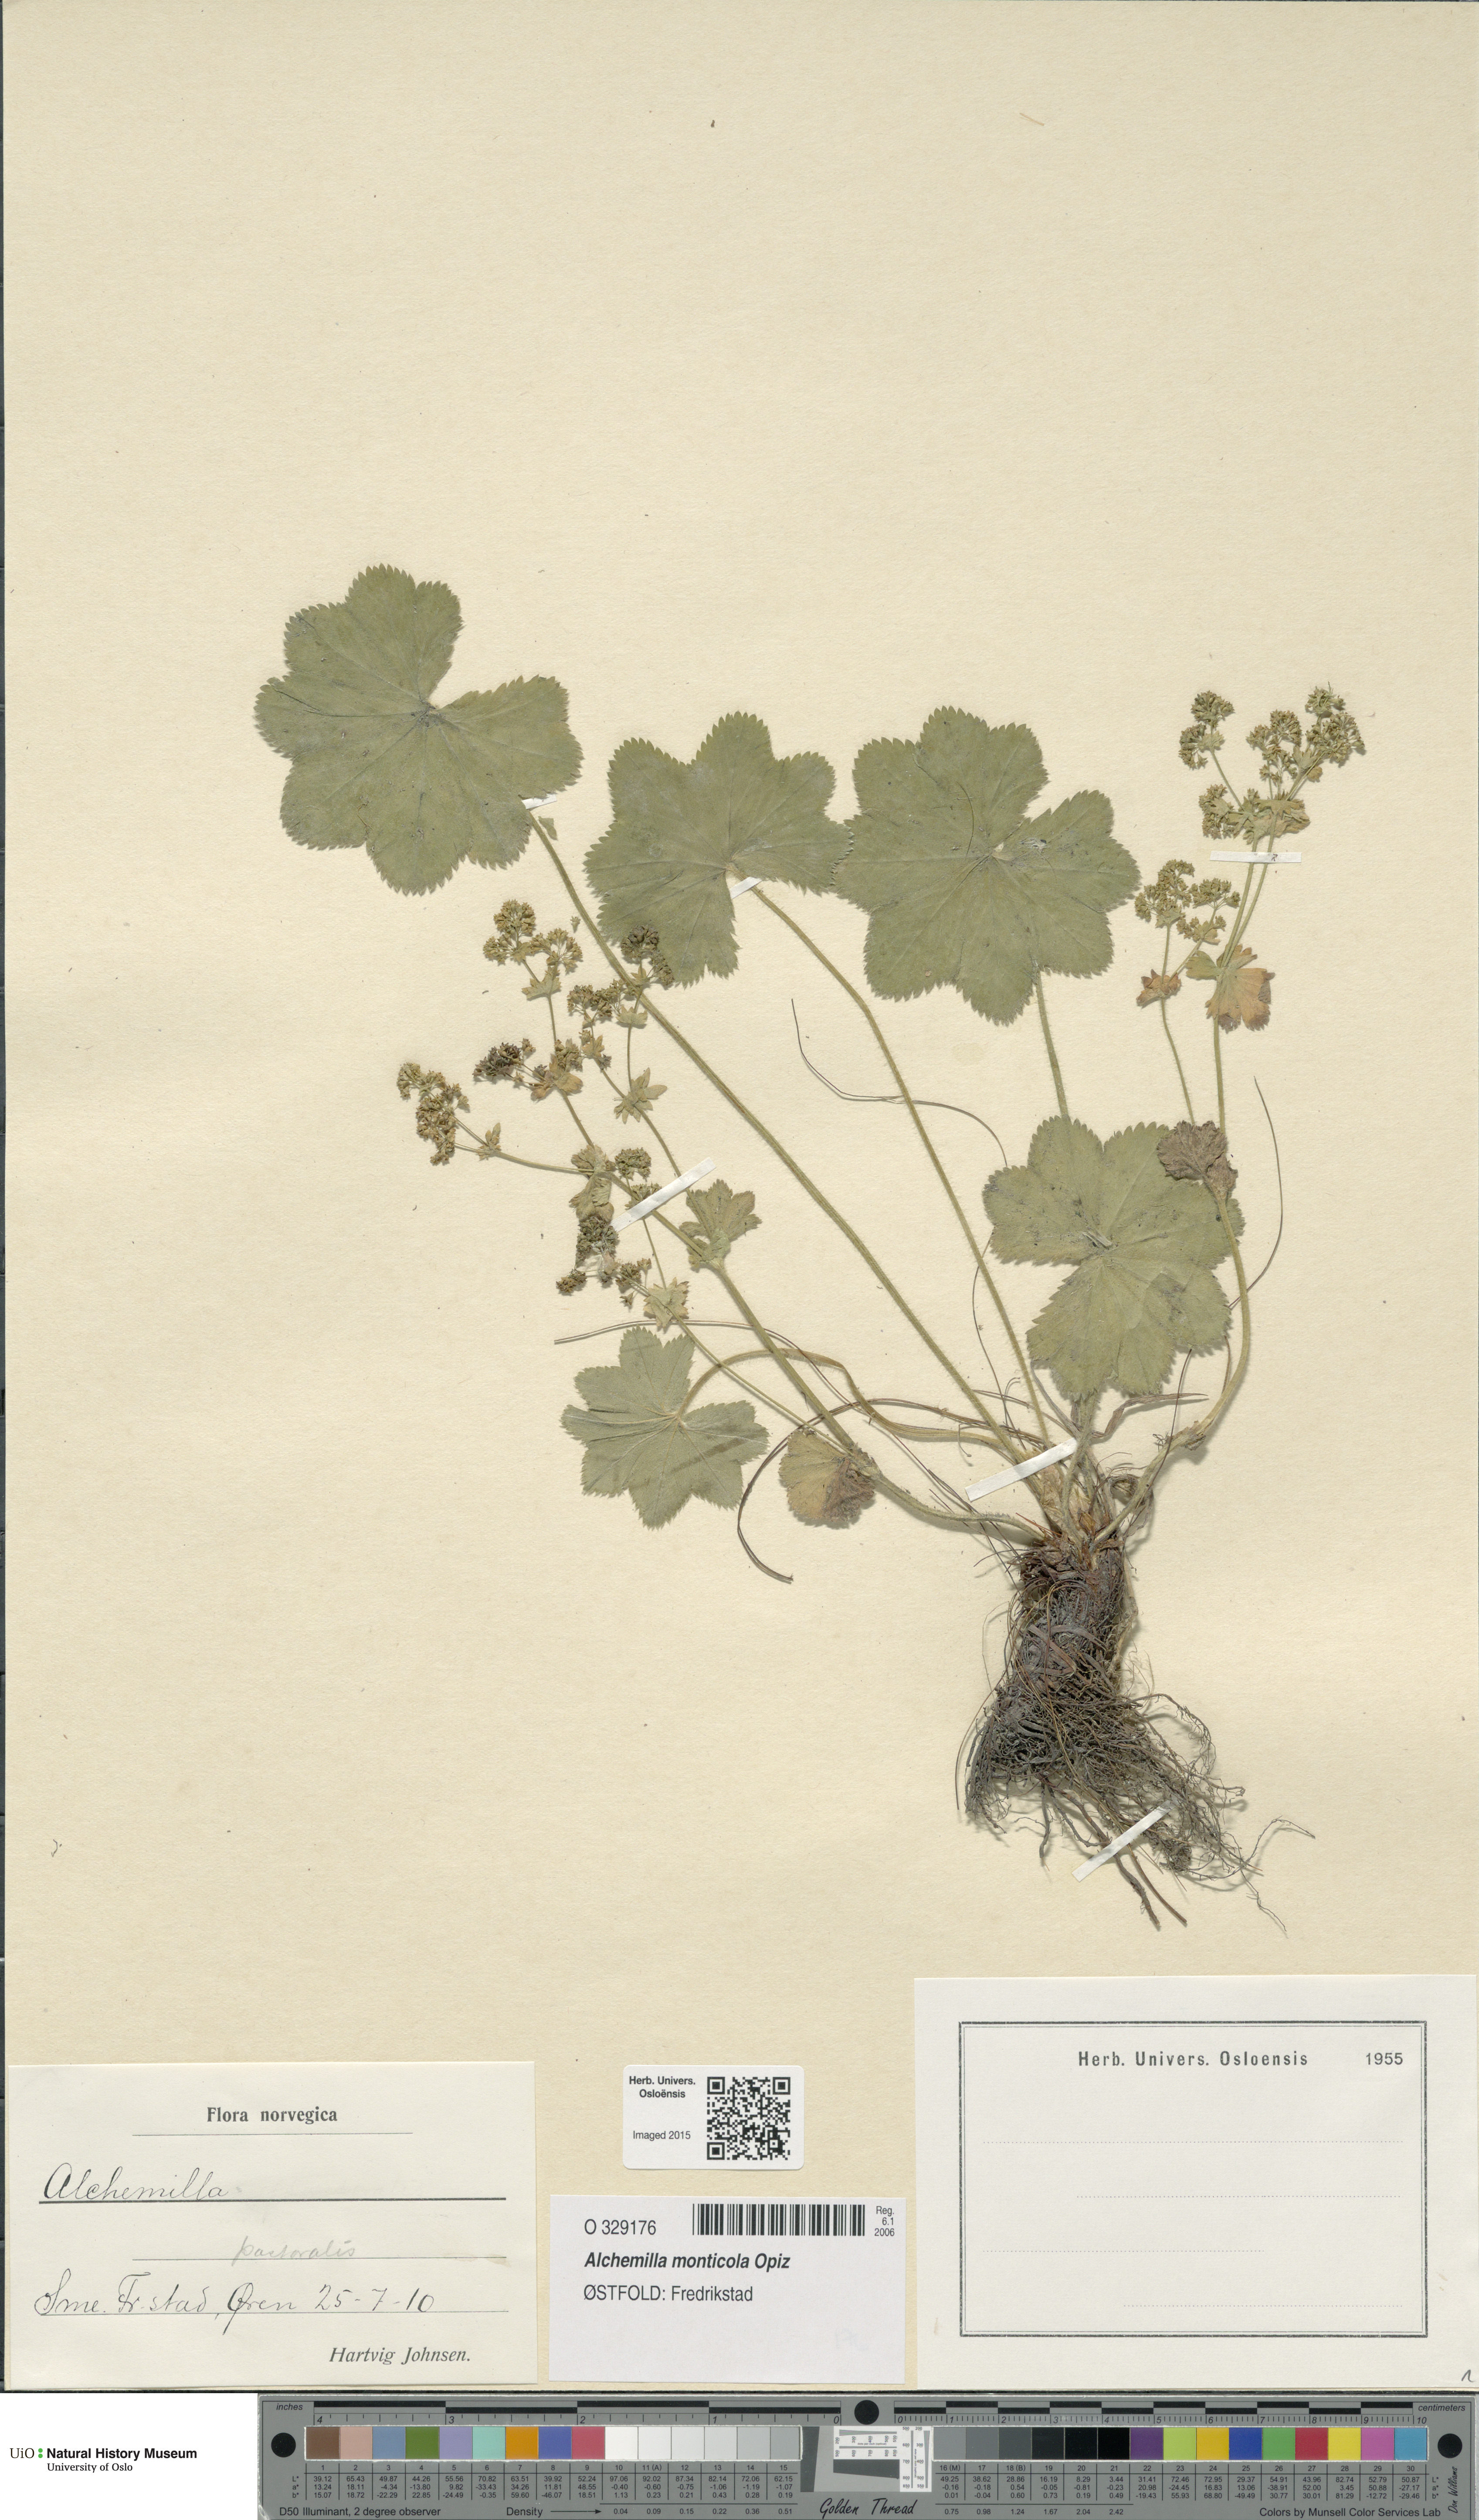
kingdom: Plantae
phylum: Tracheophyta
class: Magnoliopsida
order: Rosales
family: Rosaceae
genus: Alchemilla
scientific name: Alchemilla monticola
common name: Hairy lady's mantle
